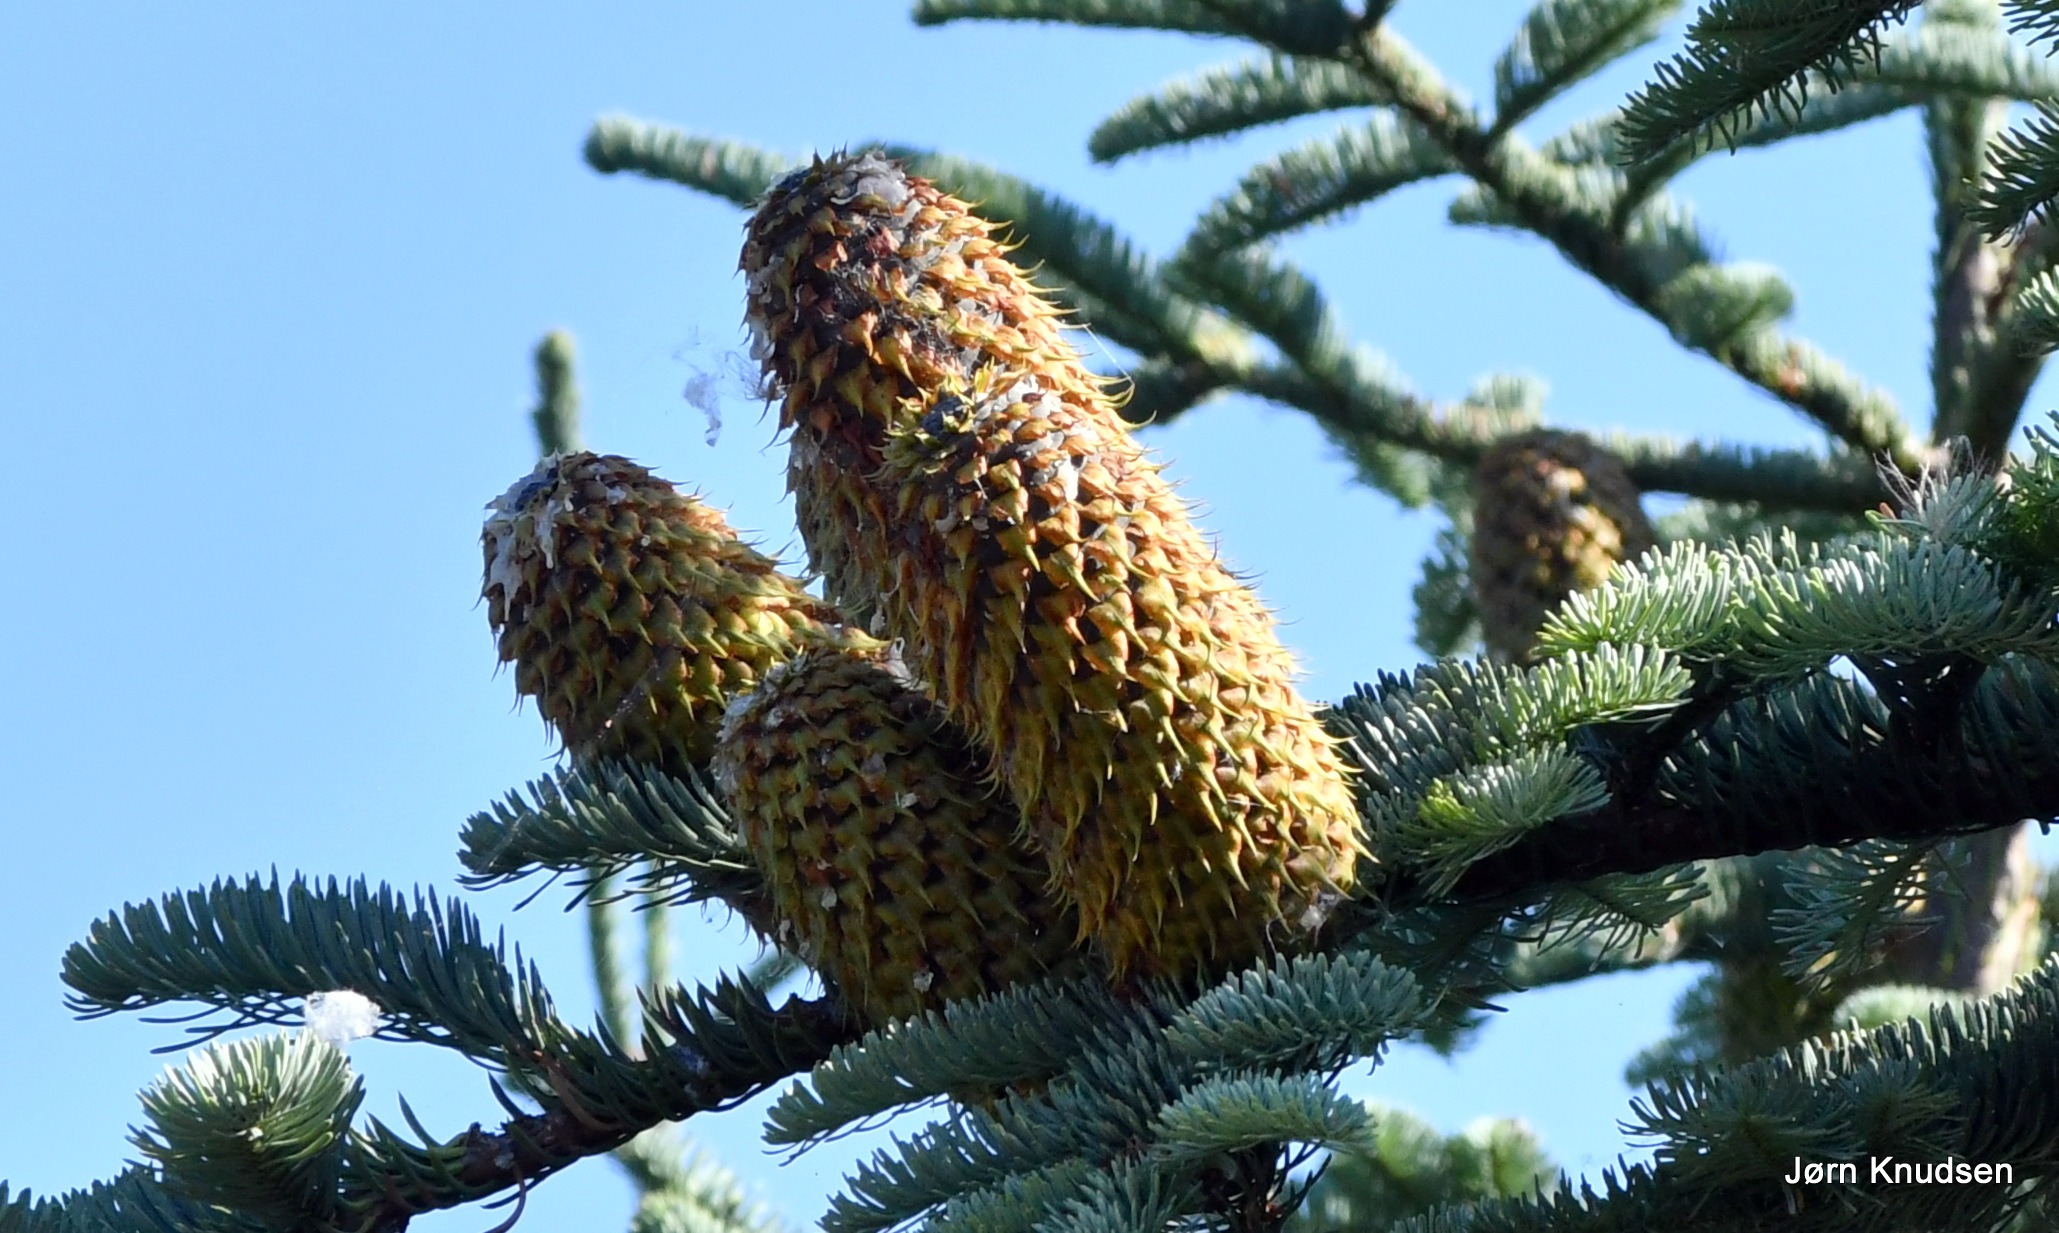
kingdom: Plantae
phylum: Tracheophyta
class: Pinopsida
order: Pinales
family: Pinaceae
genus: Abies
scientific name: Abies procera
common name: Sølvgran
